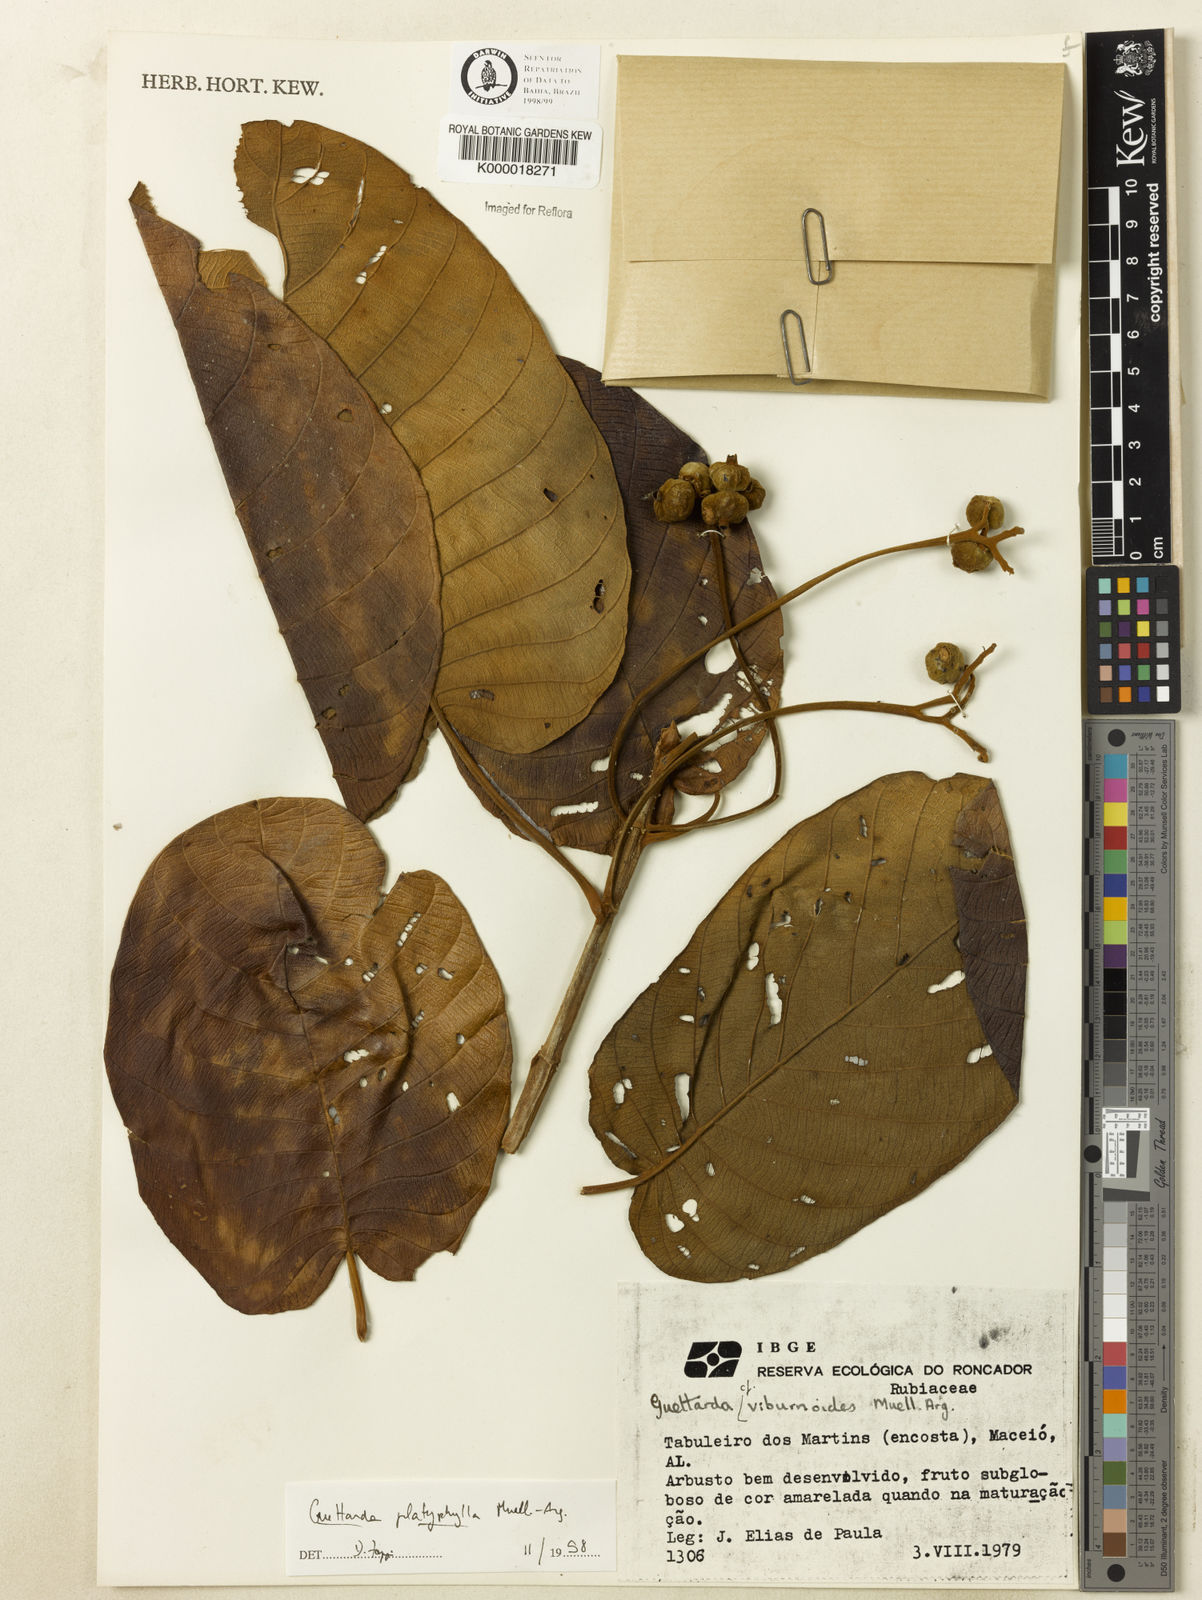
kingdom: Plantae
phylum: Tracheophyta
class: Magnoliopsida
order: Gentianales
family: Rubiaceae
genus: Guettarda
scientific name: Guettarda viburnoides
